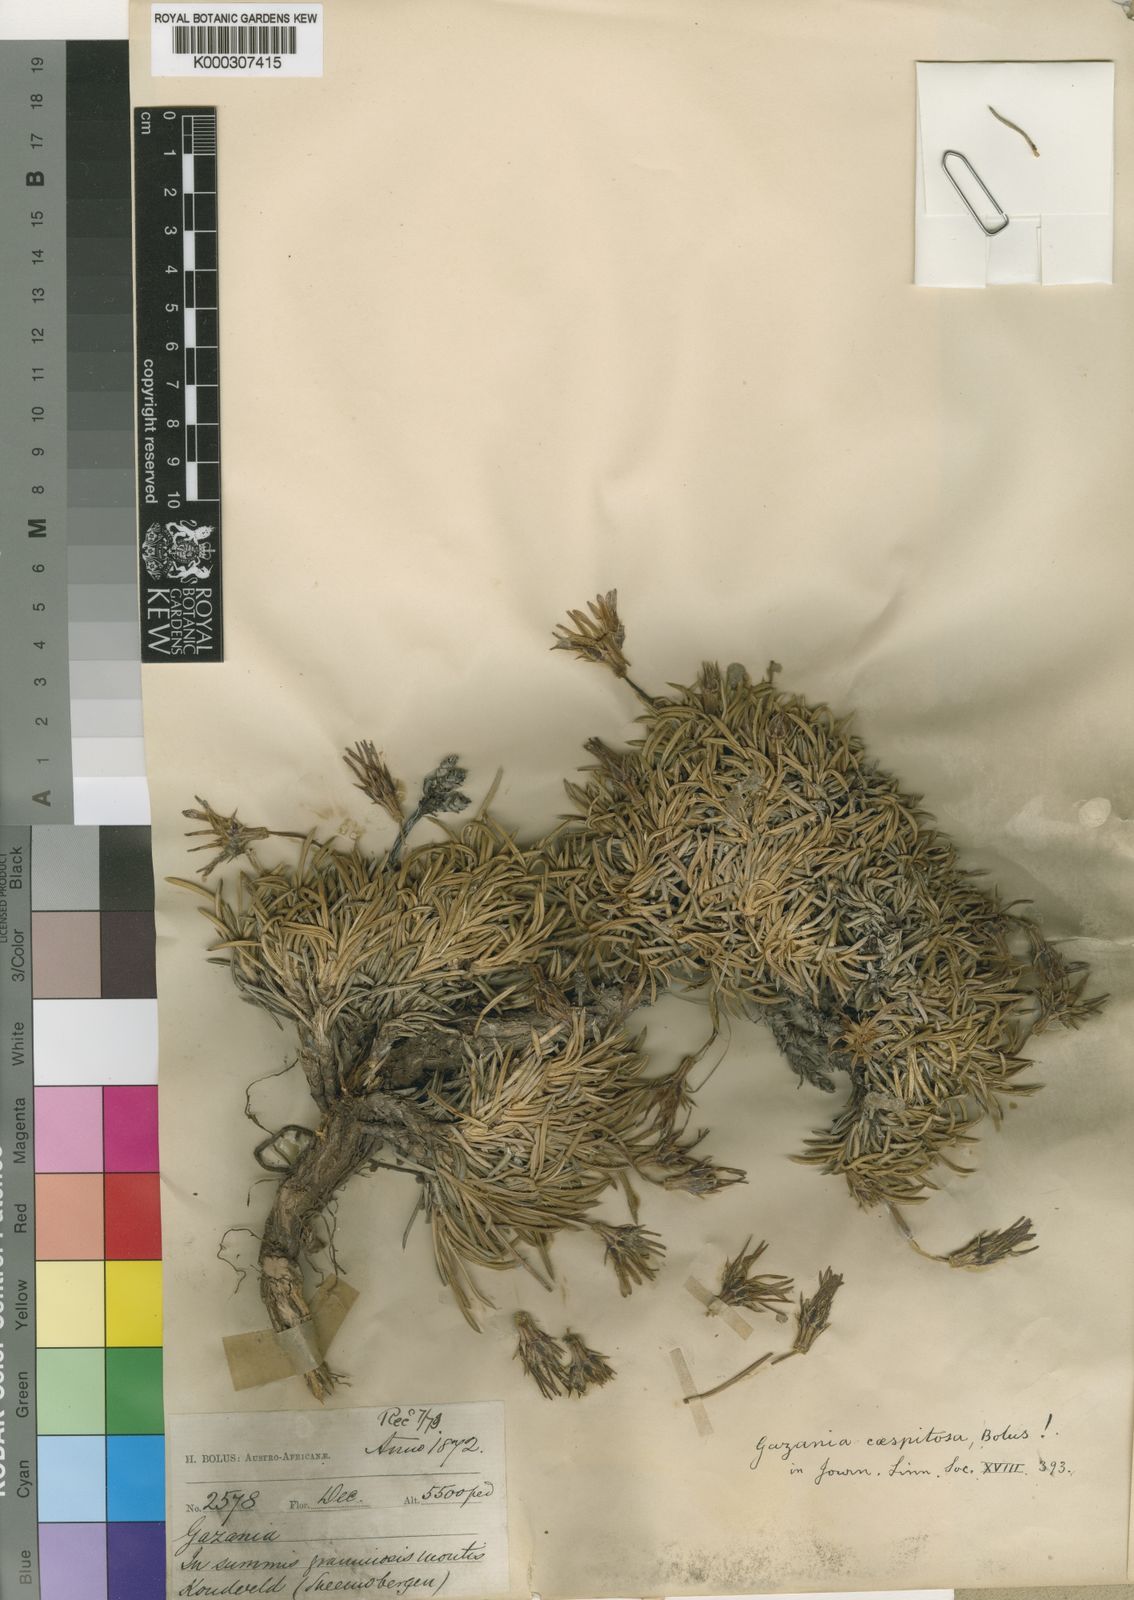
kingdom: Plantae
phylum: Tracheophyta
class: Magnoliopsida
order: Asterales
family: Asteraceae
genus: Gazania
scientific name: Gazania
